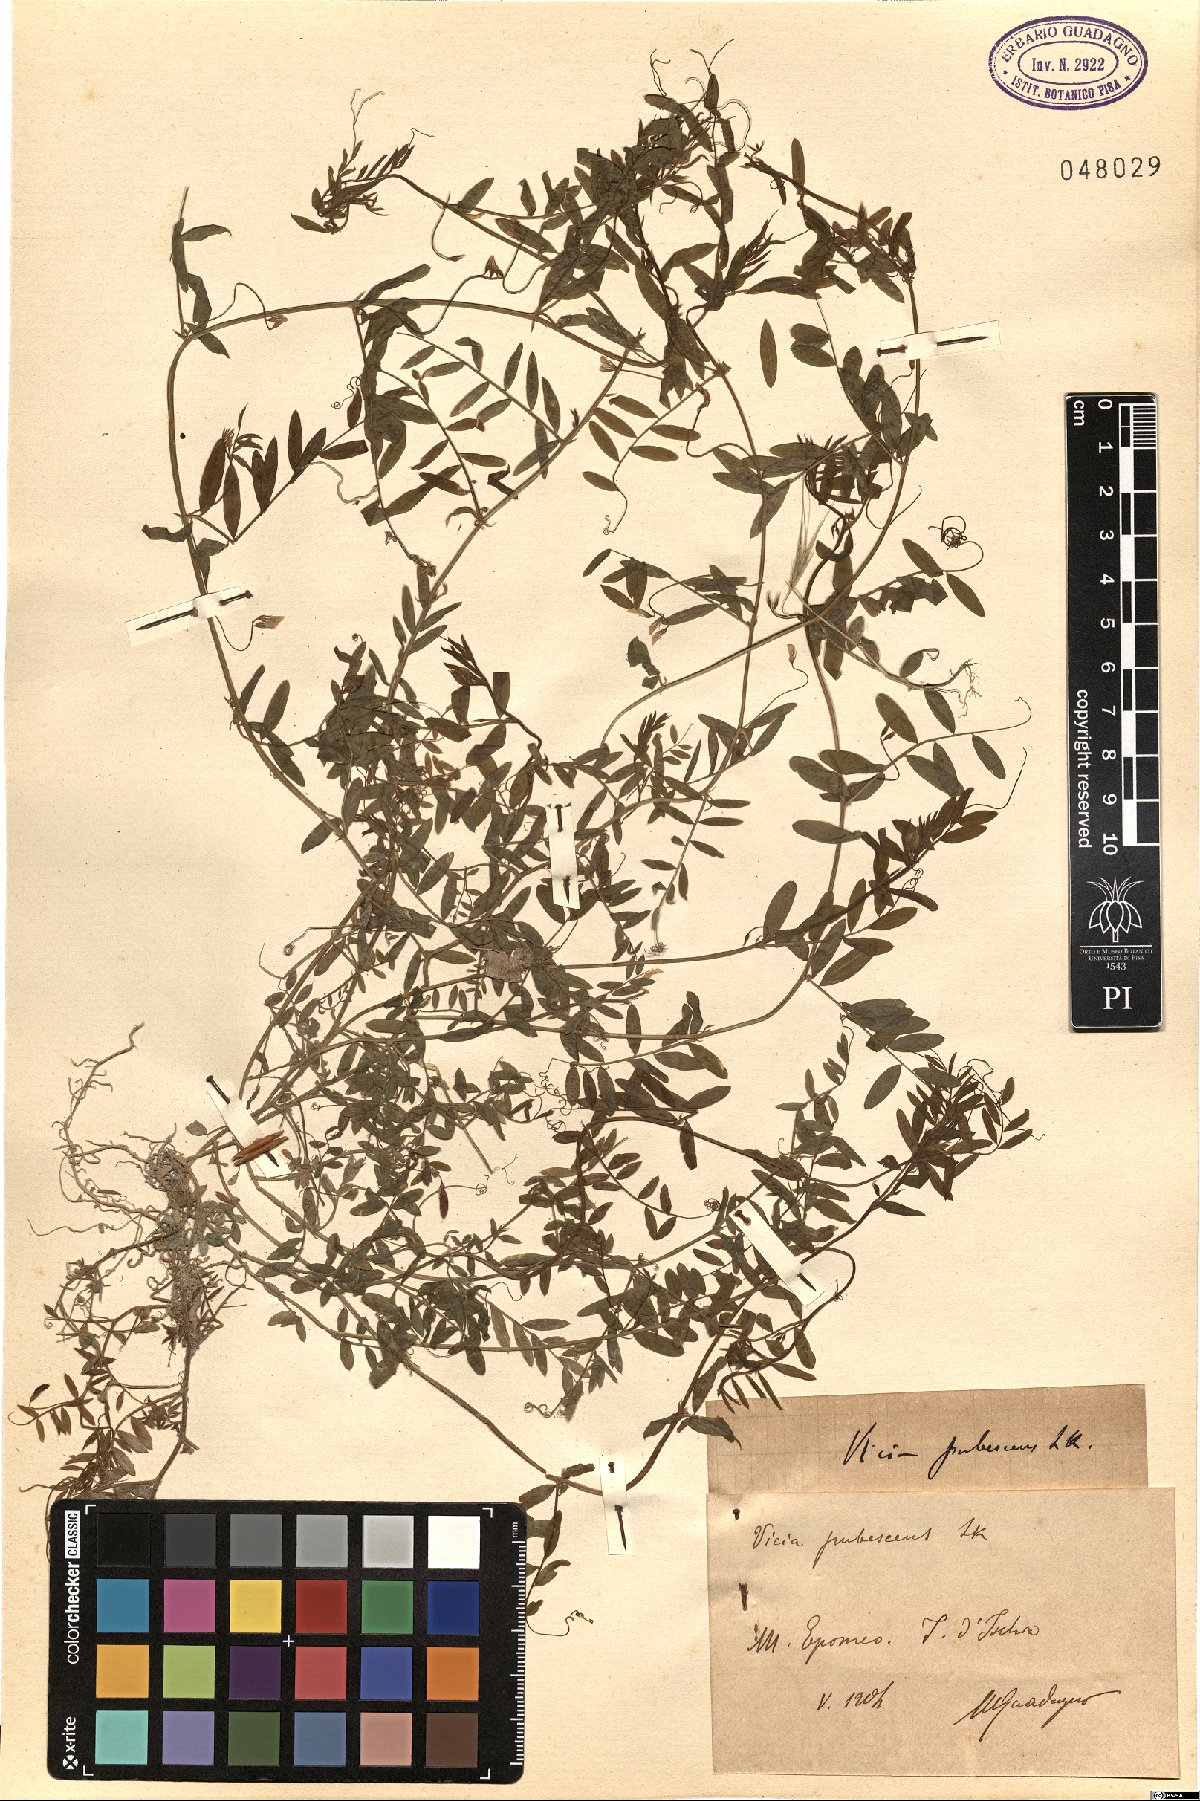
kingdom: Plantae
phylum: Tracheophyta
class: Magnoliopsida
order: Fabales
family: Fabaceae
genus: Vicia
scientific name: Vicia pubescens
